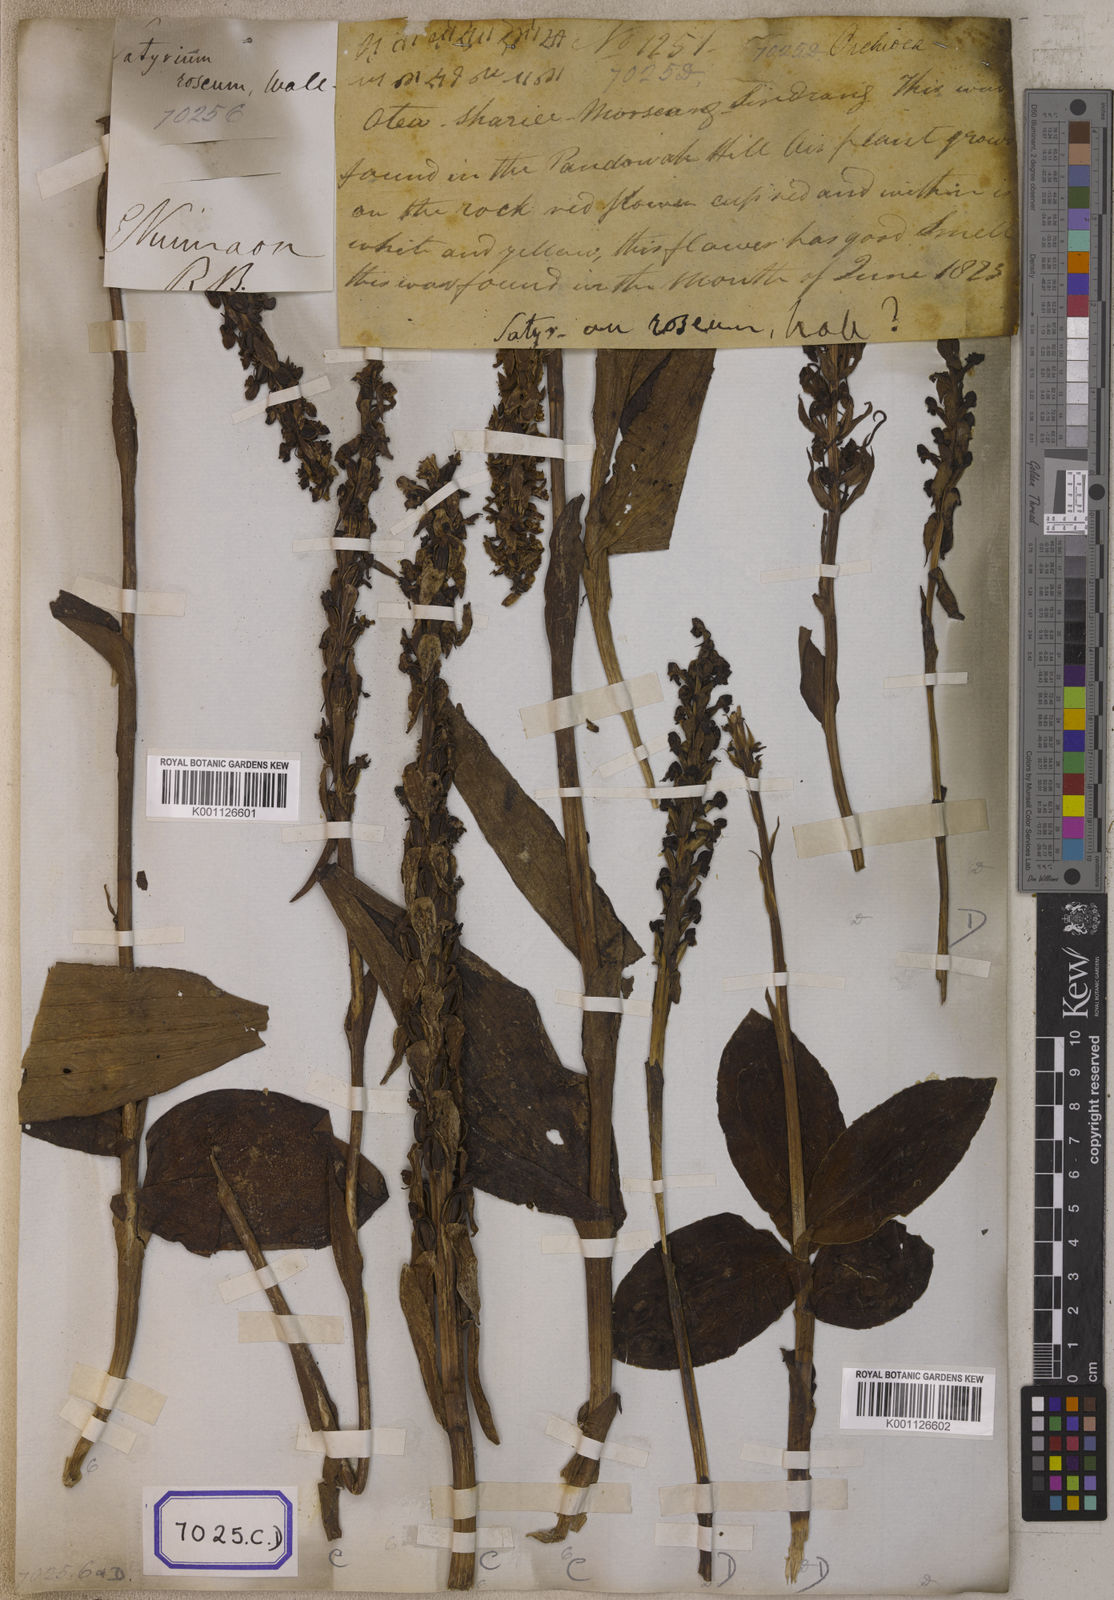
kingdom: Plantae
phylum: Tracheophyta
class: Liliopsida
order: Asparagales
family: Orchidaceae
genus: Satyrium
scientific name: Satyrium nepalense
